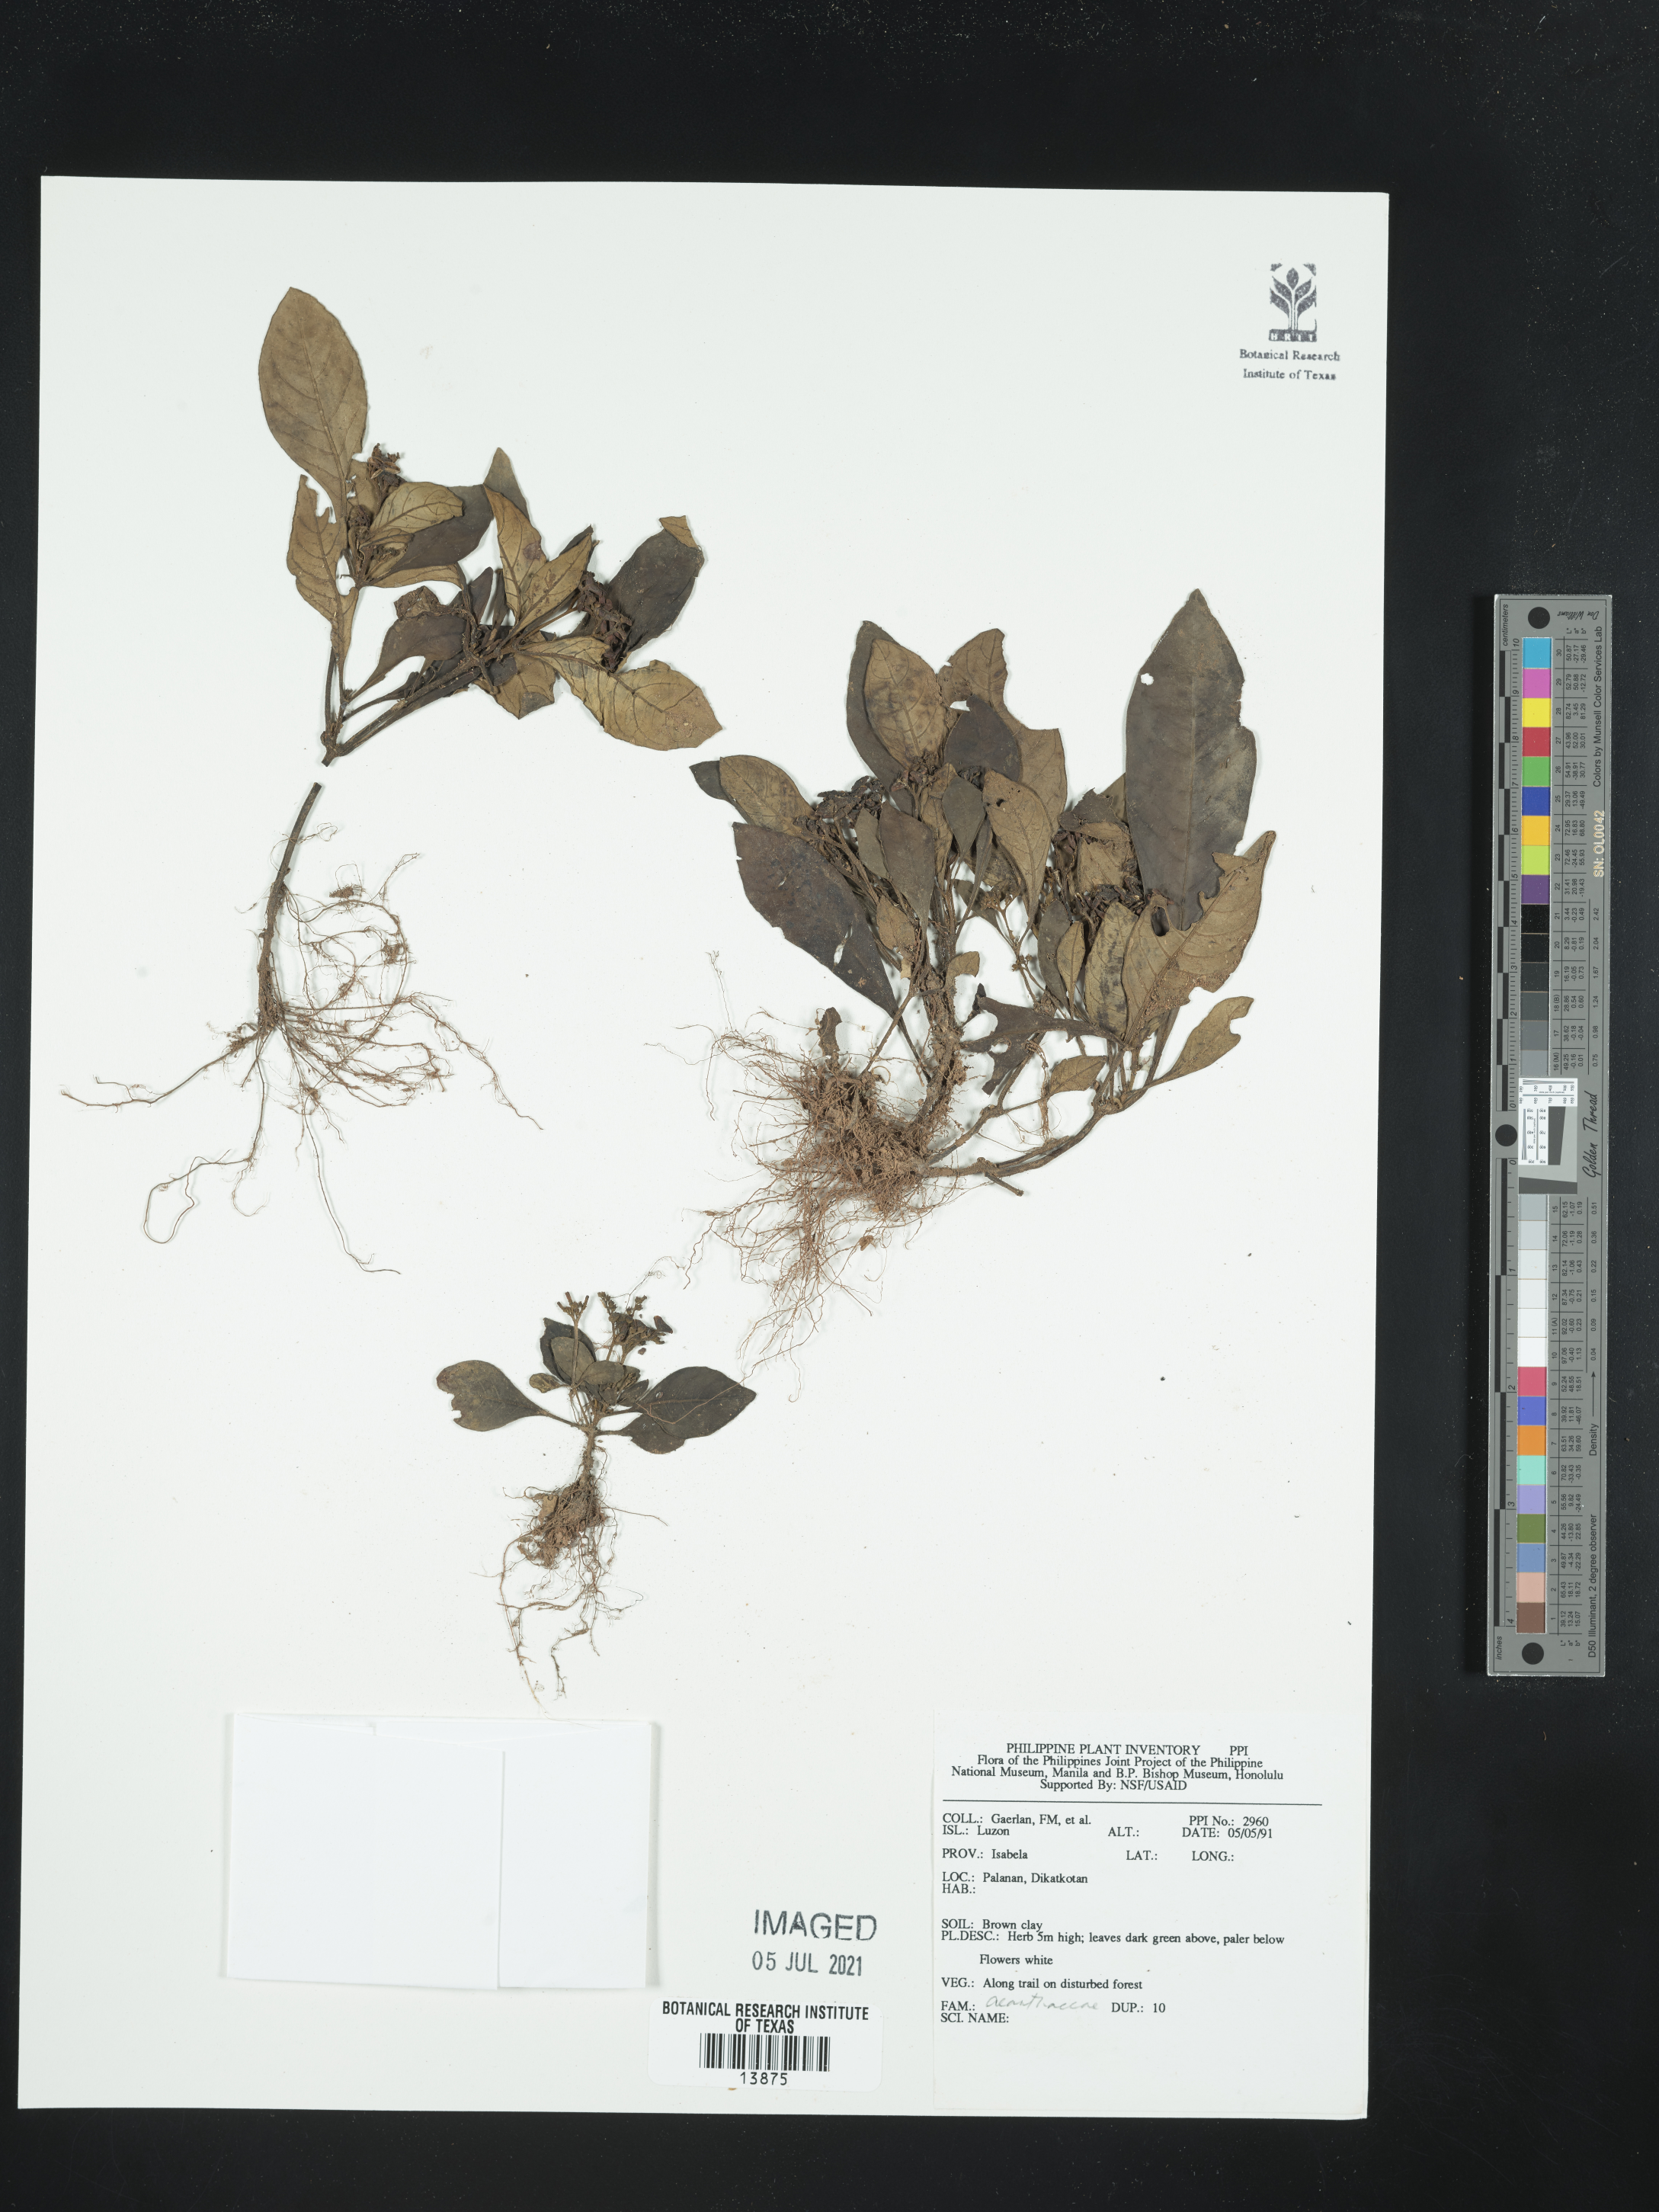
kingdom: Plantae
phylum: Tracheophyta
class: Magnoliopsida
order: Lamiales
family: Acanthaceae
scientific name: Acanthaceae
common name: Acanthaceae
